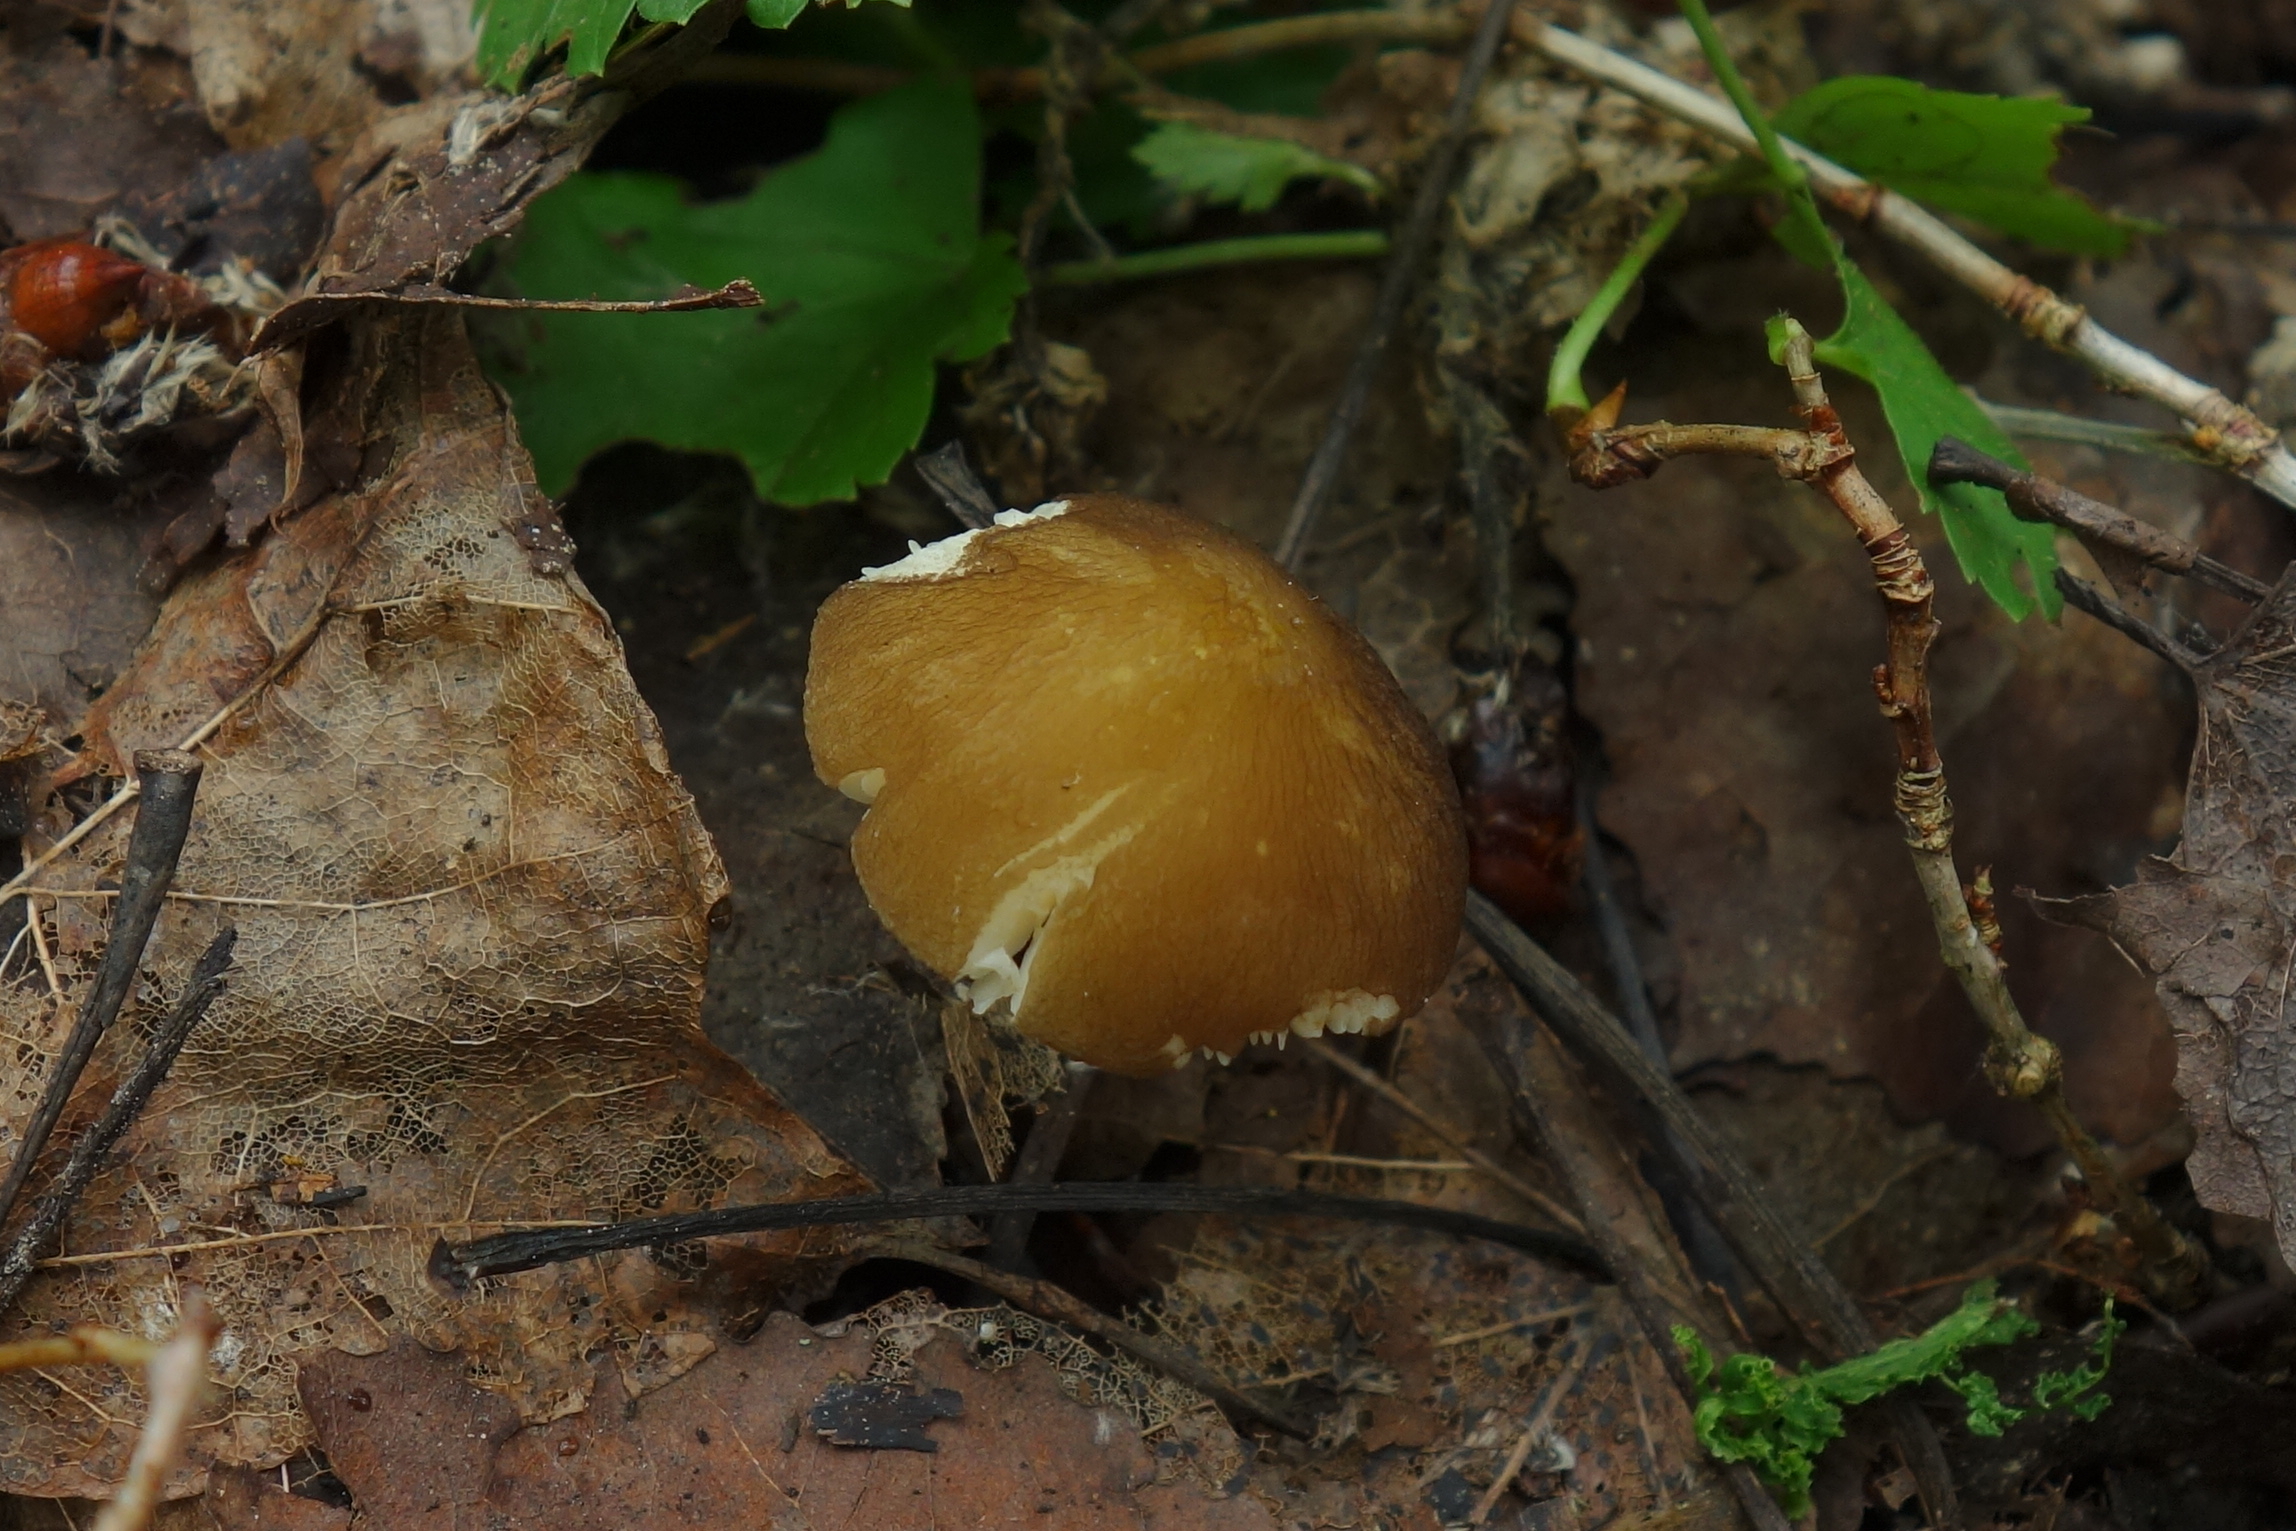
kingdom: Fungi
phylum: Basidiomycota
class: Agaricomycetes
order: Agaricales
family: Pluteaceae
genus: Pluteus
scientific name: Pluteus romellii
